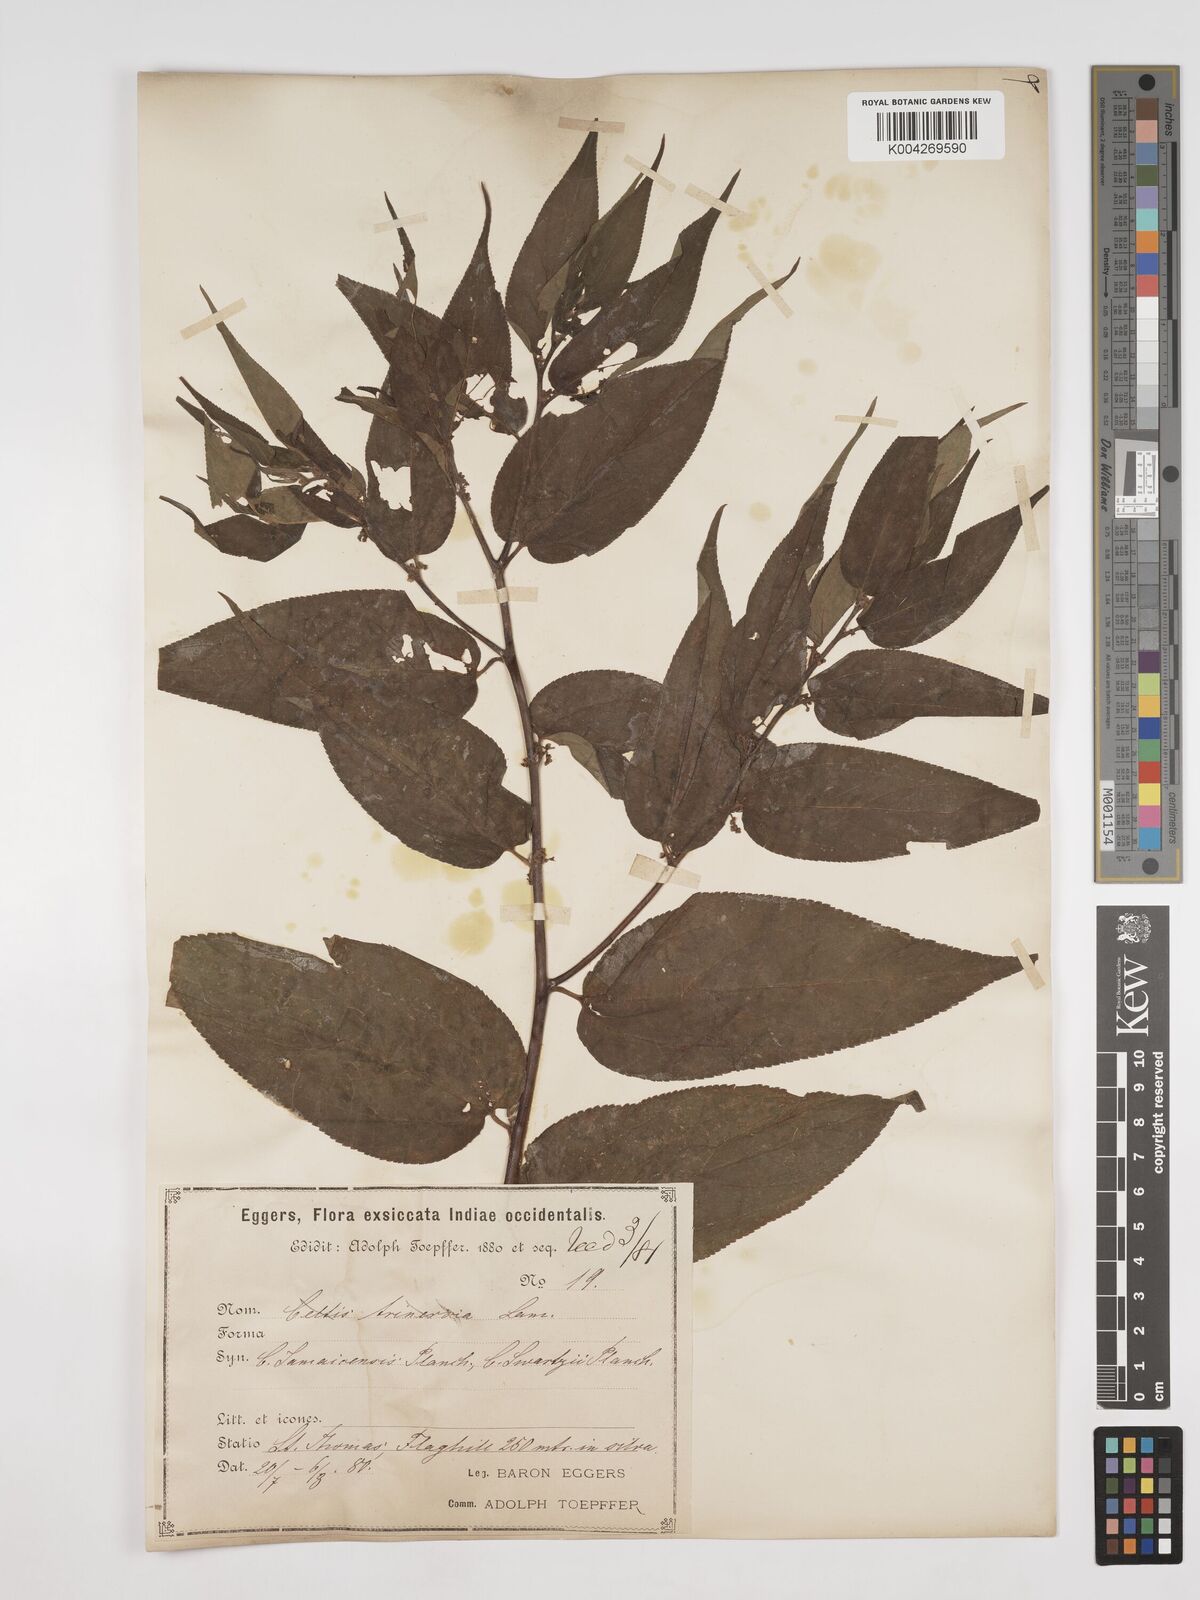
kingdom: Plantae
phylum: Tracheophyta
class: Magnoliopsida
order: Rosales
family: Cannabaceae
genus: Trema
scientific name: Trema micranthum
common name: Jamaican nettletree
